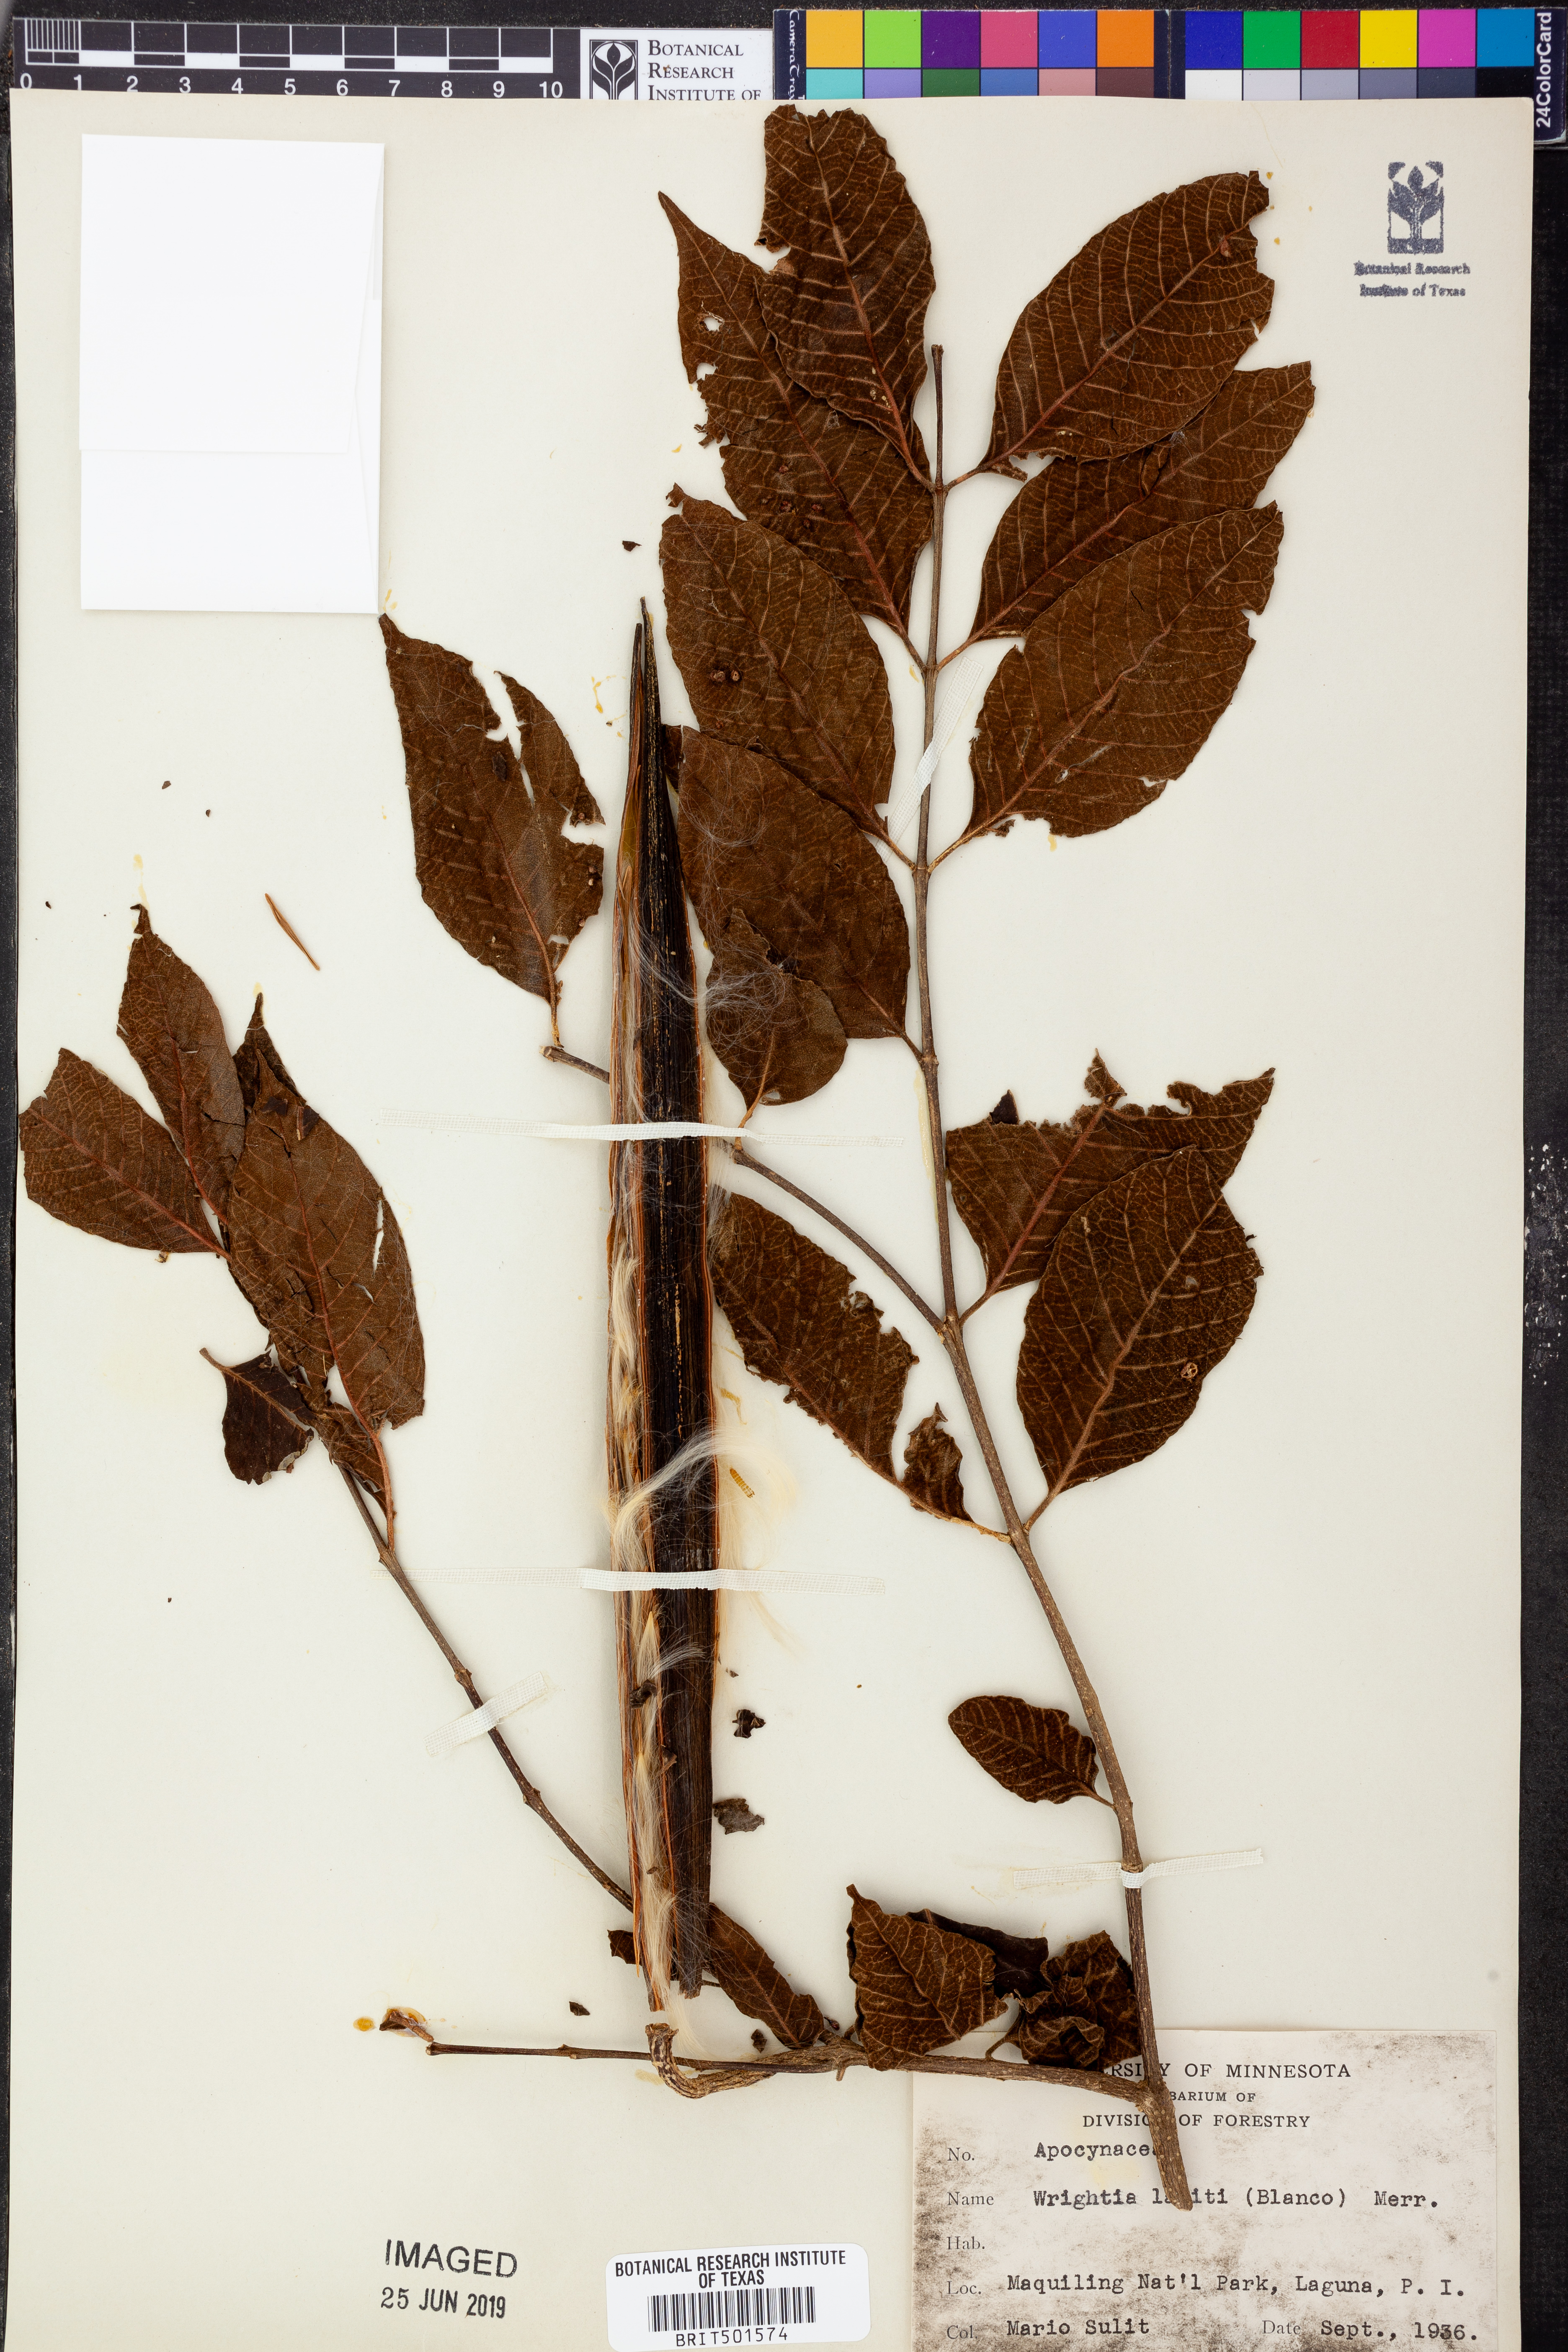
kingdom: Plantae
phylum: Tracheophyta
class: Magnoliopsida
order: Gentianales
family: Apocynaceae
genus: Wrightia
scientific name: Wrightia pubescens
